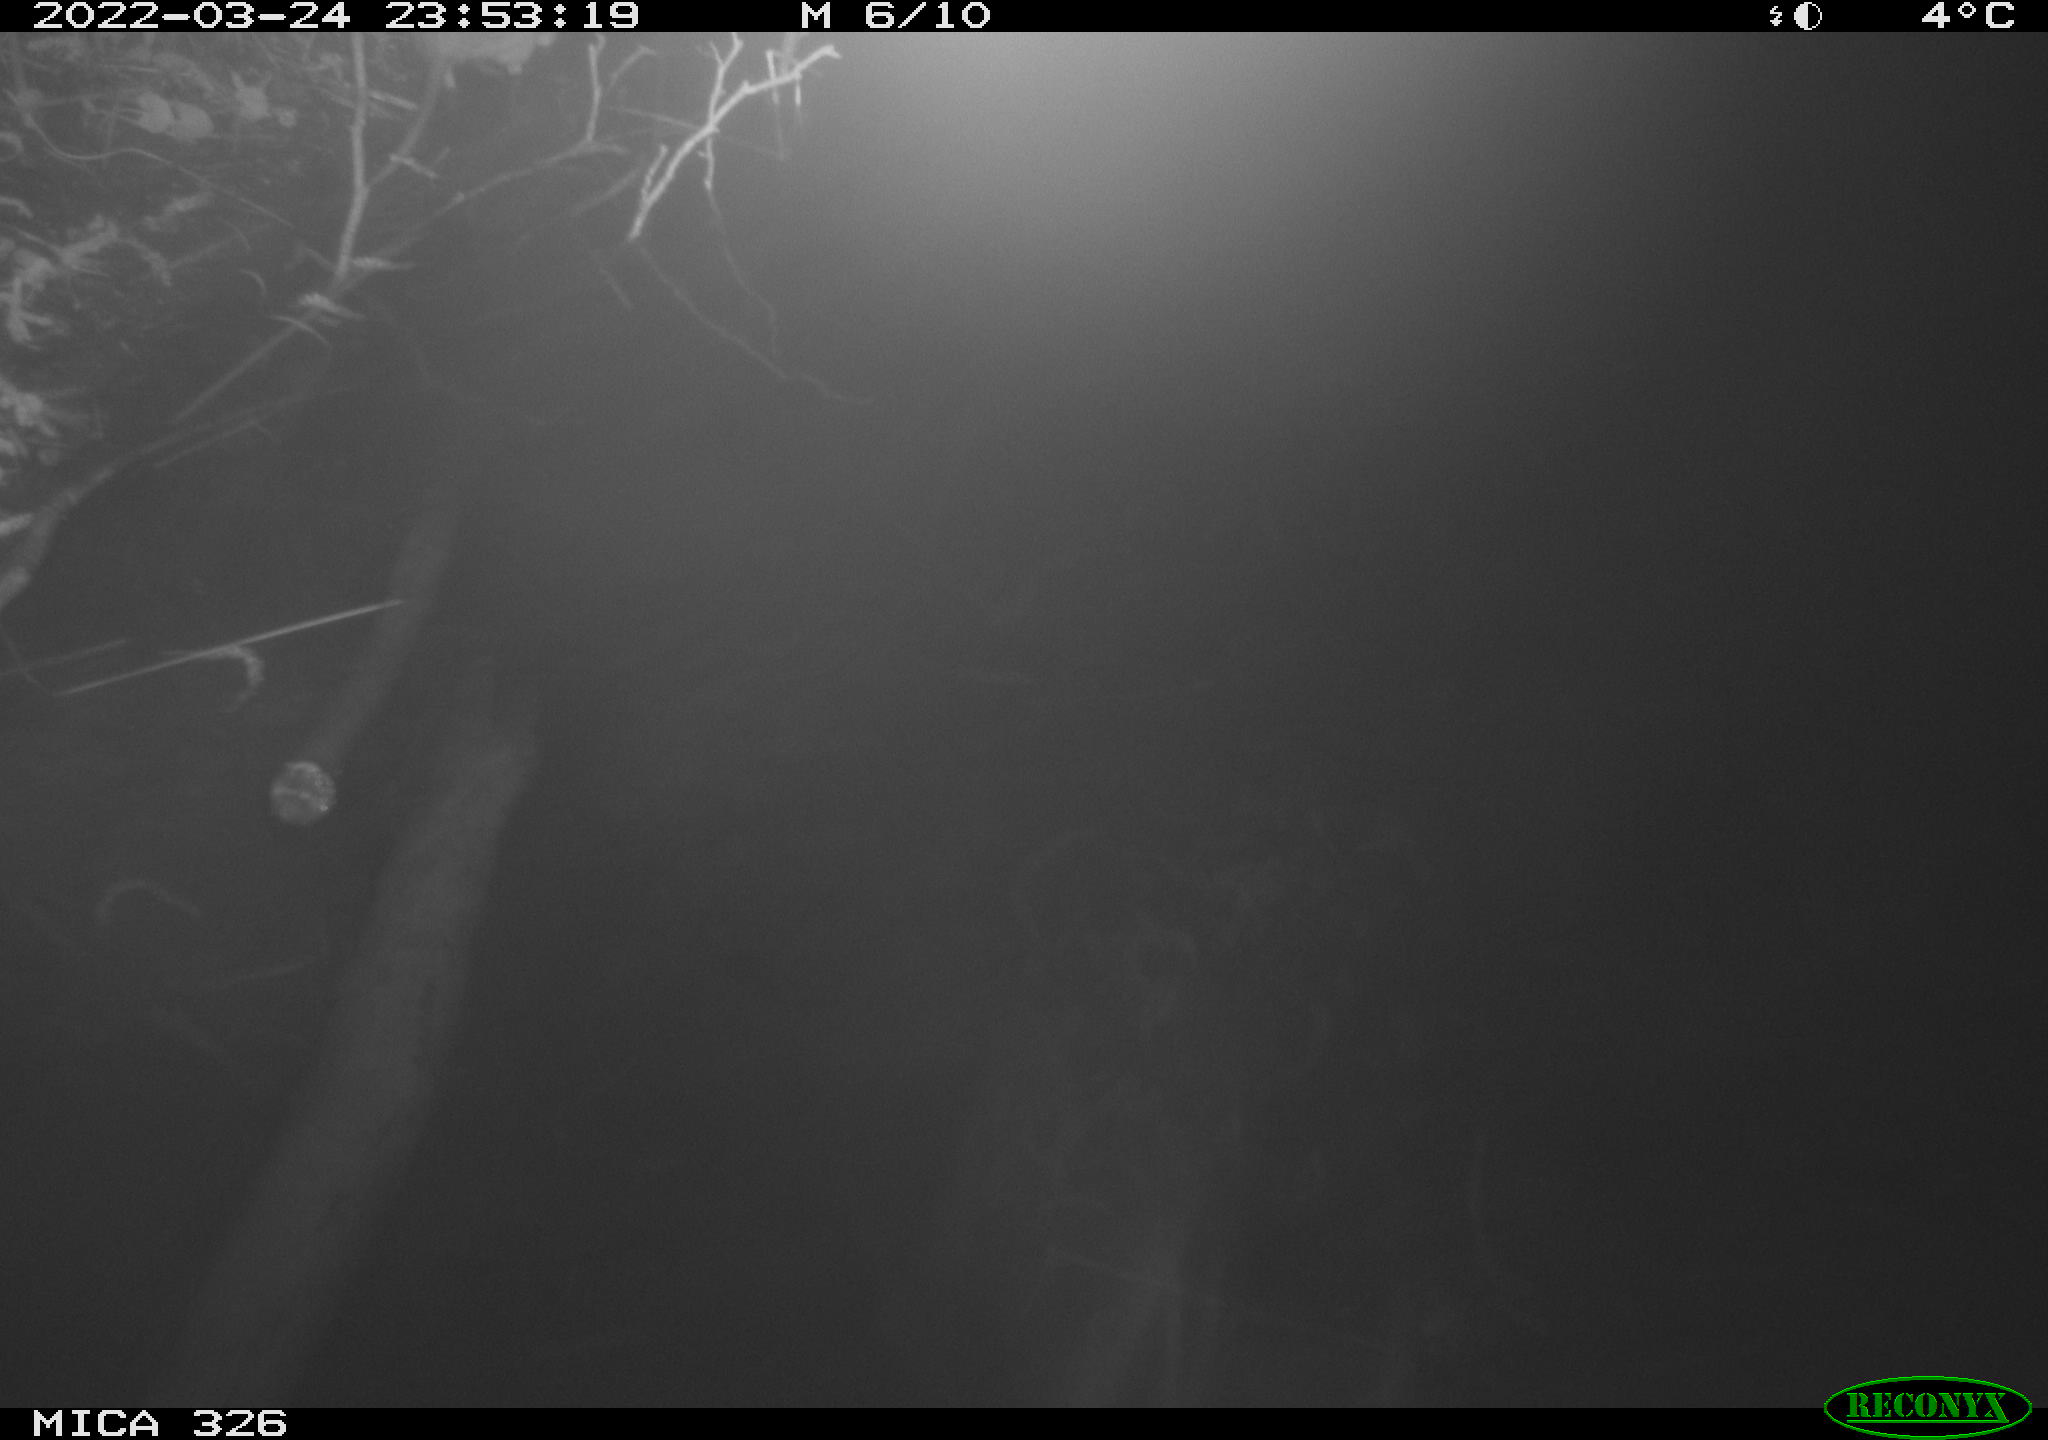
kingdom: Animalia
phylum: Chordata
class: Mammalia
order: Rodentia
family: Muridae
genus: Rattus
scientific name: Rattus norvegicus
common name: Brown rat
